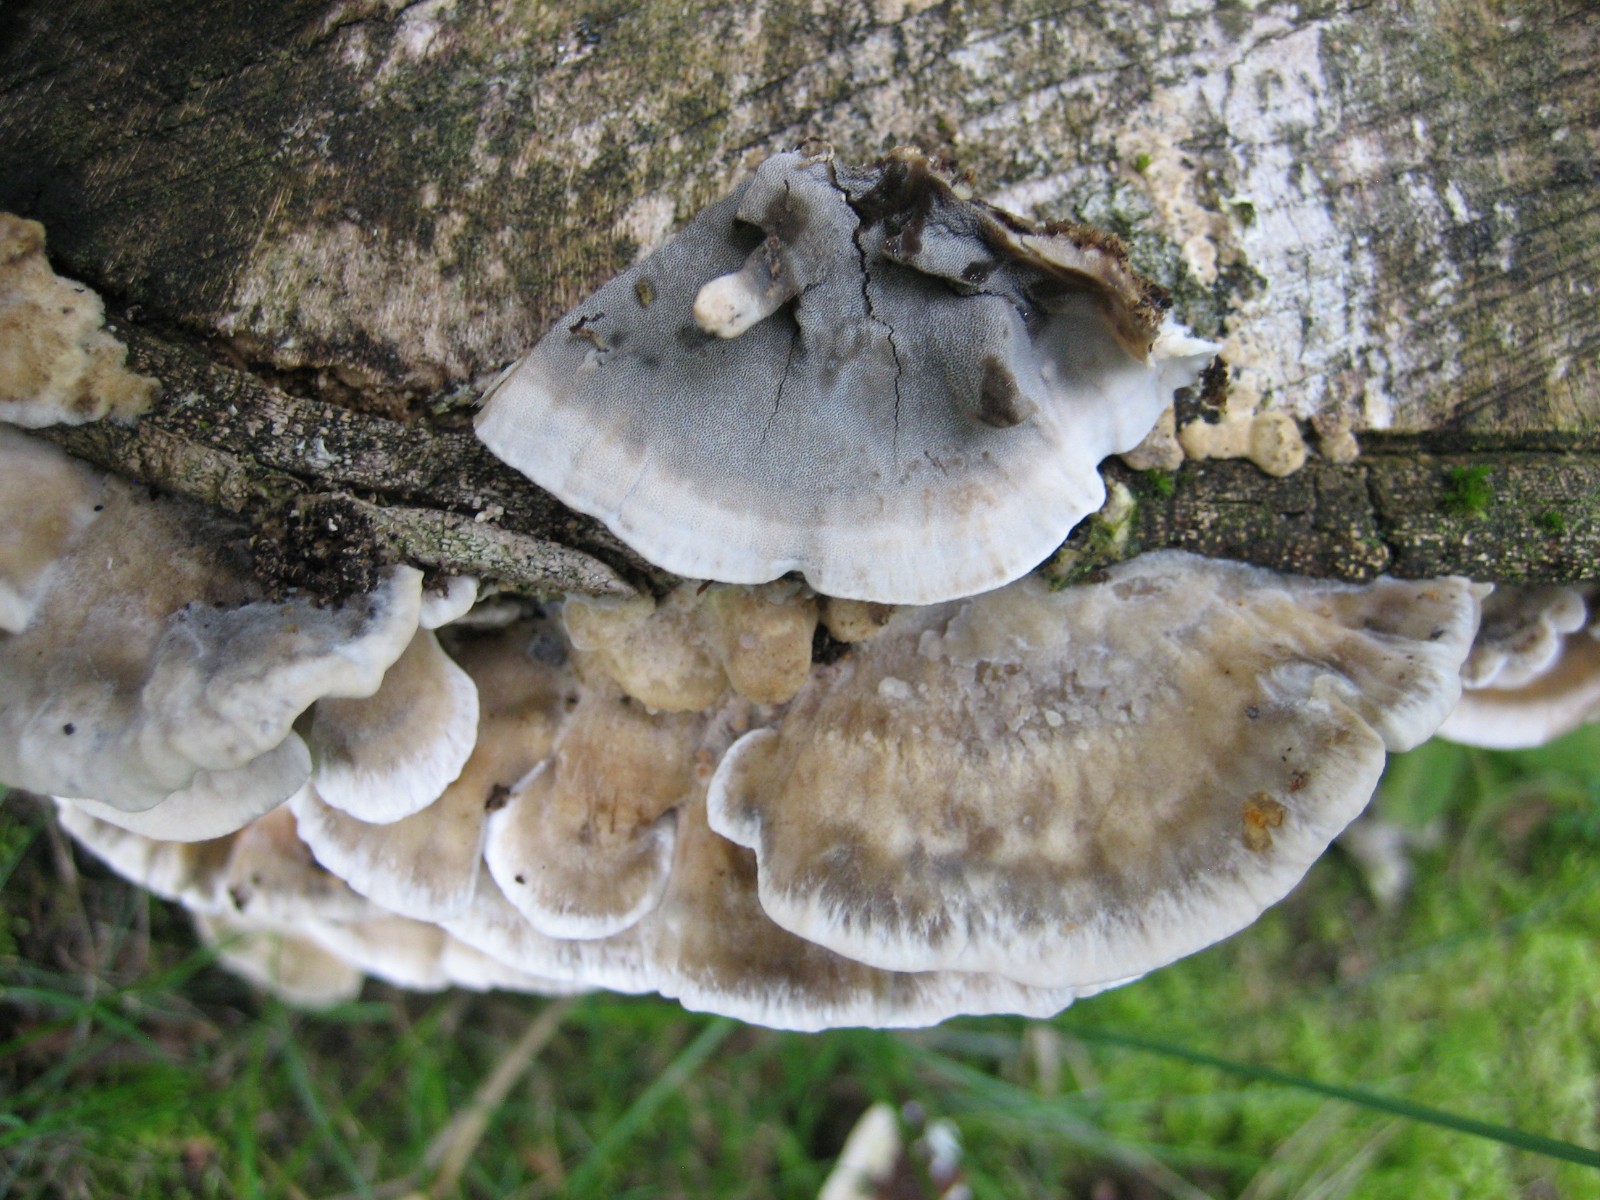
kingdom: Fungi
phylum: Basidiomycota
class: Agaricomycetes
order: Polyporales
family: Phanerochaetaceae
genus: Bjerkandera
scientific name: Bjerkandera adusta
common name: sveden sodporesvamp
